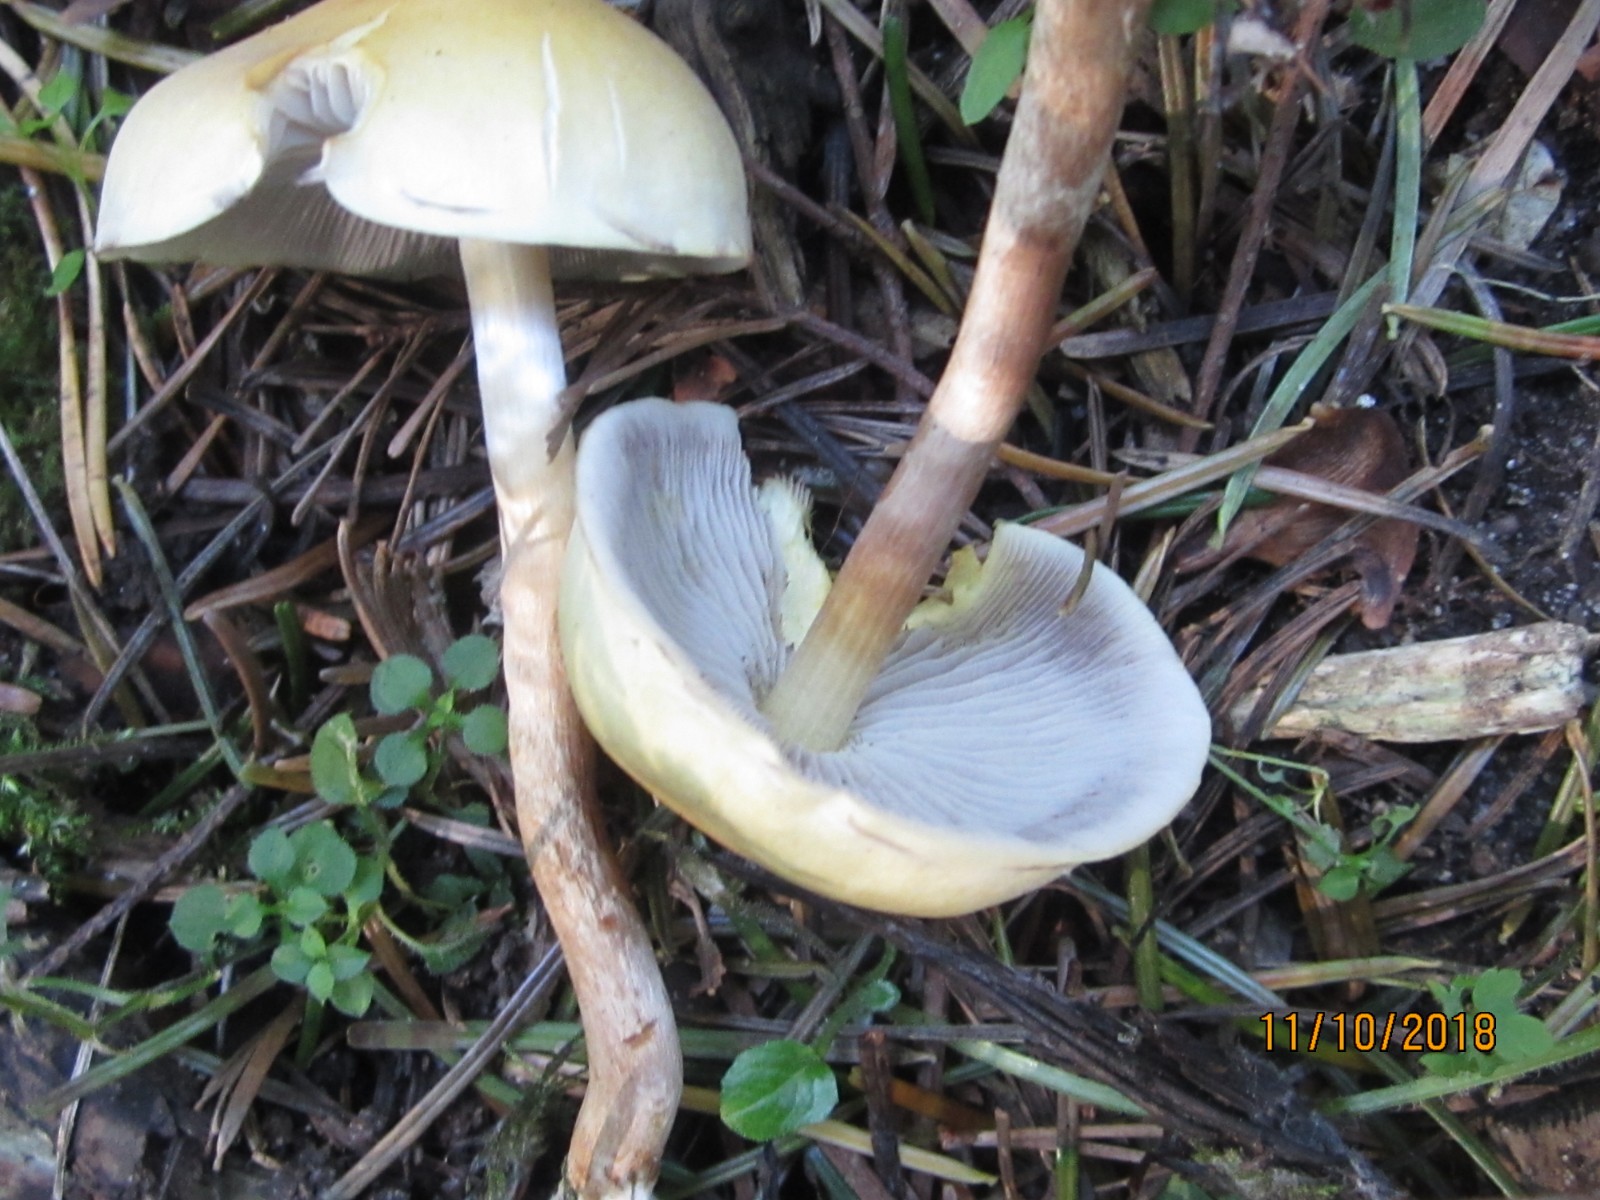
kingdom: Fungi
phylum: Basidiomycota
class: Agaricomycetes
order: Agaricales
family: Strophariaceae
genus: Hypholoma
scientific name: Hypholoma capnoides
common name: gran-svovlhat
